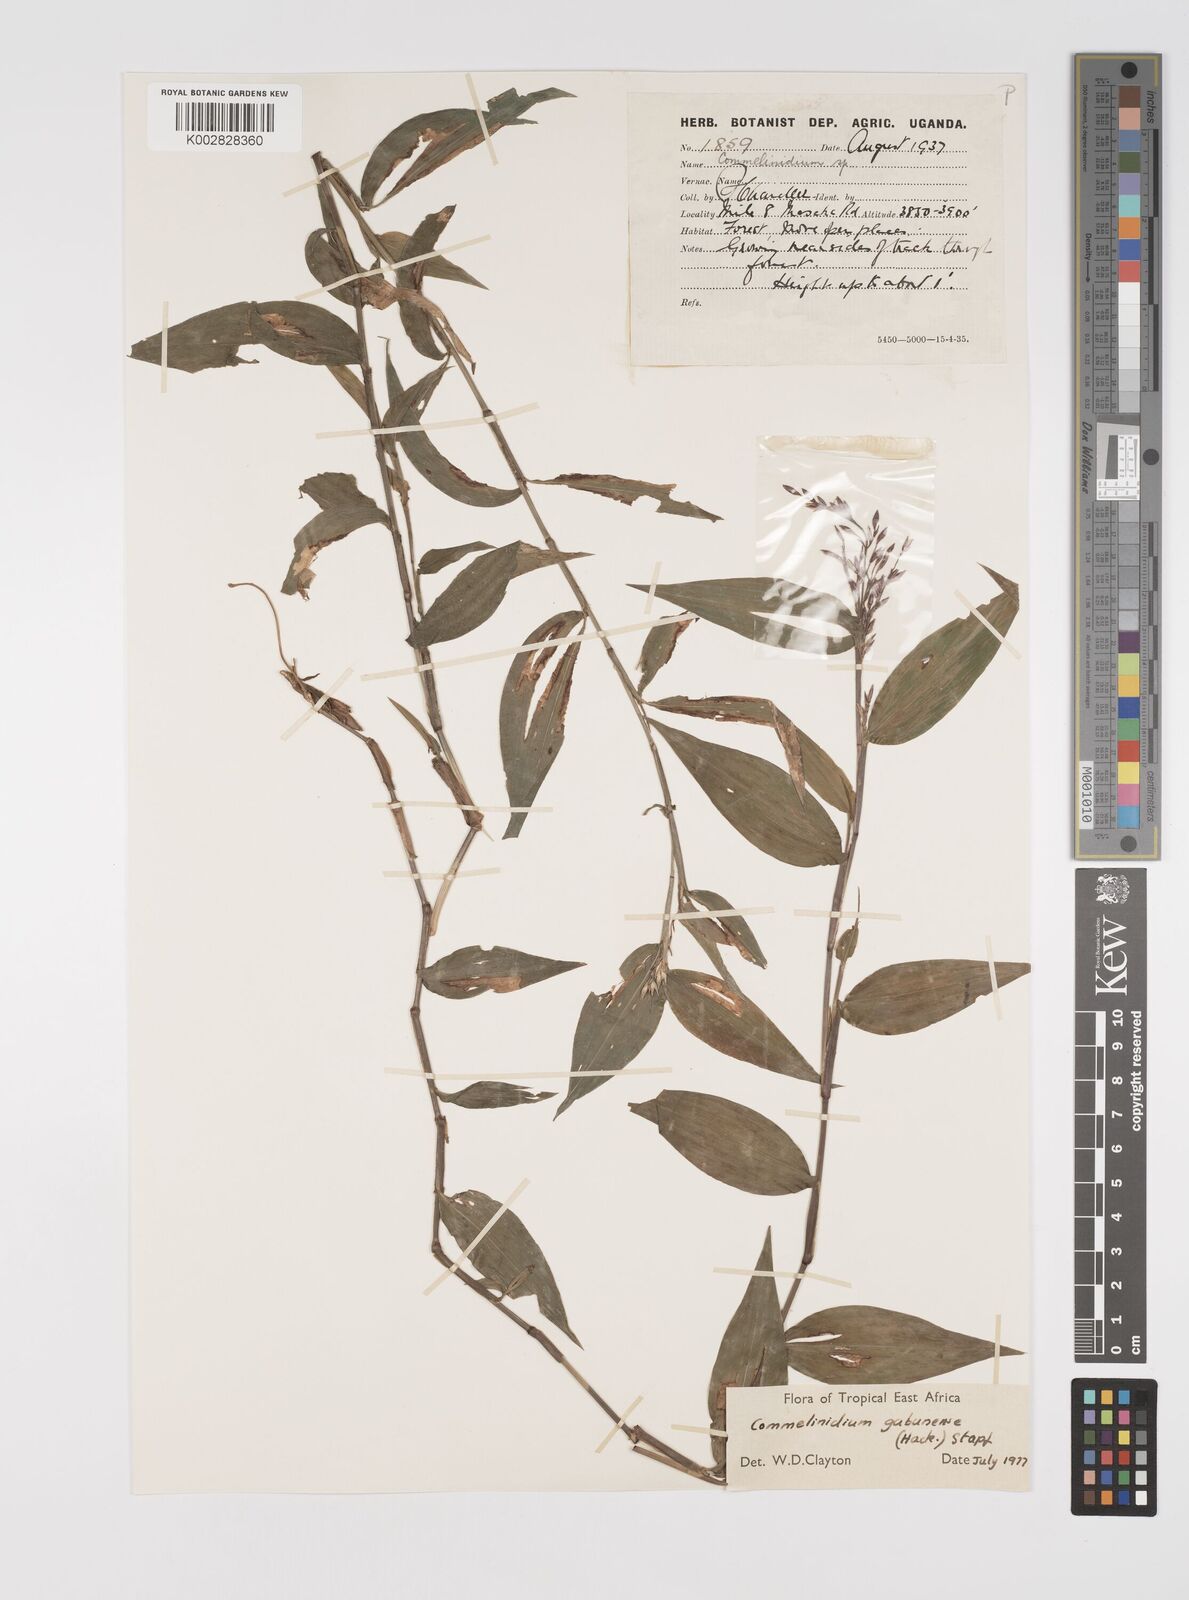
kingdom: Plantae
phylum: Tracheophyta
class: Liliopsida
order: Poales
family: Poaceae
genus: Acroceras
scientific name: Acroceras gabunense
